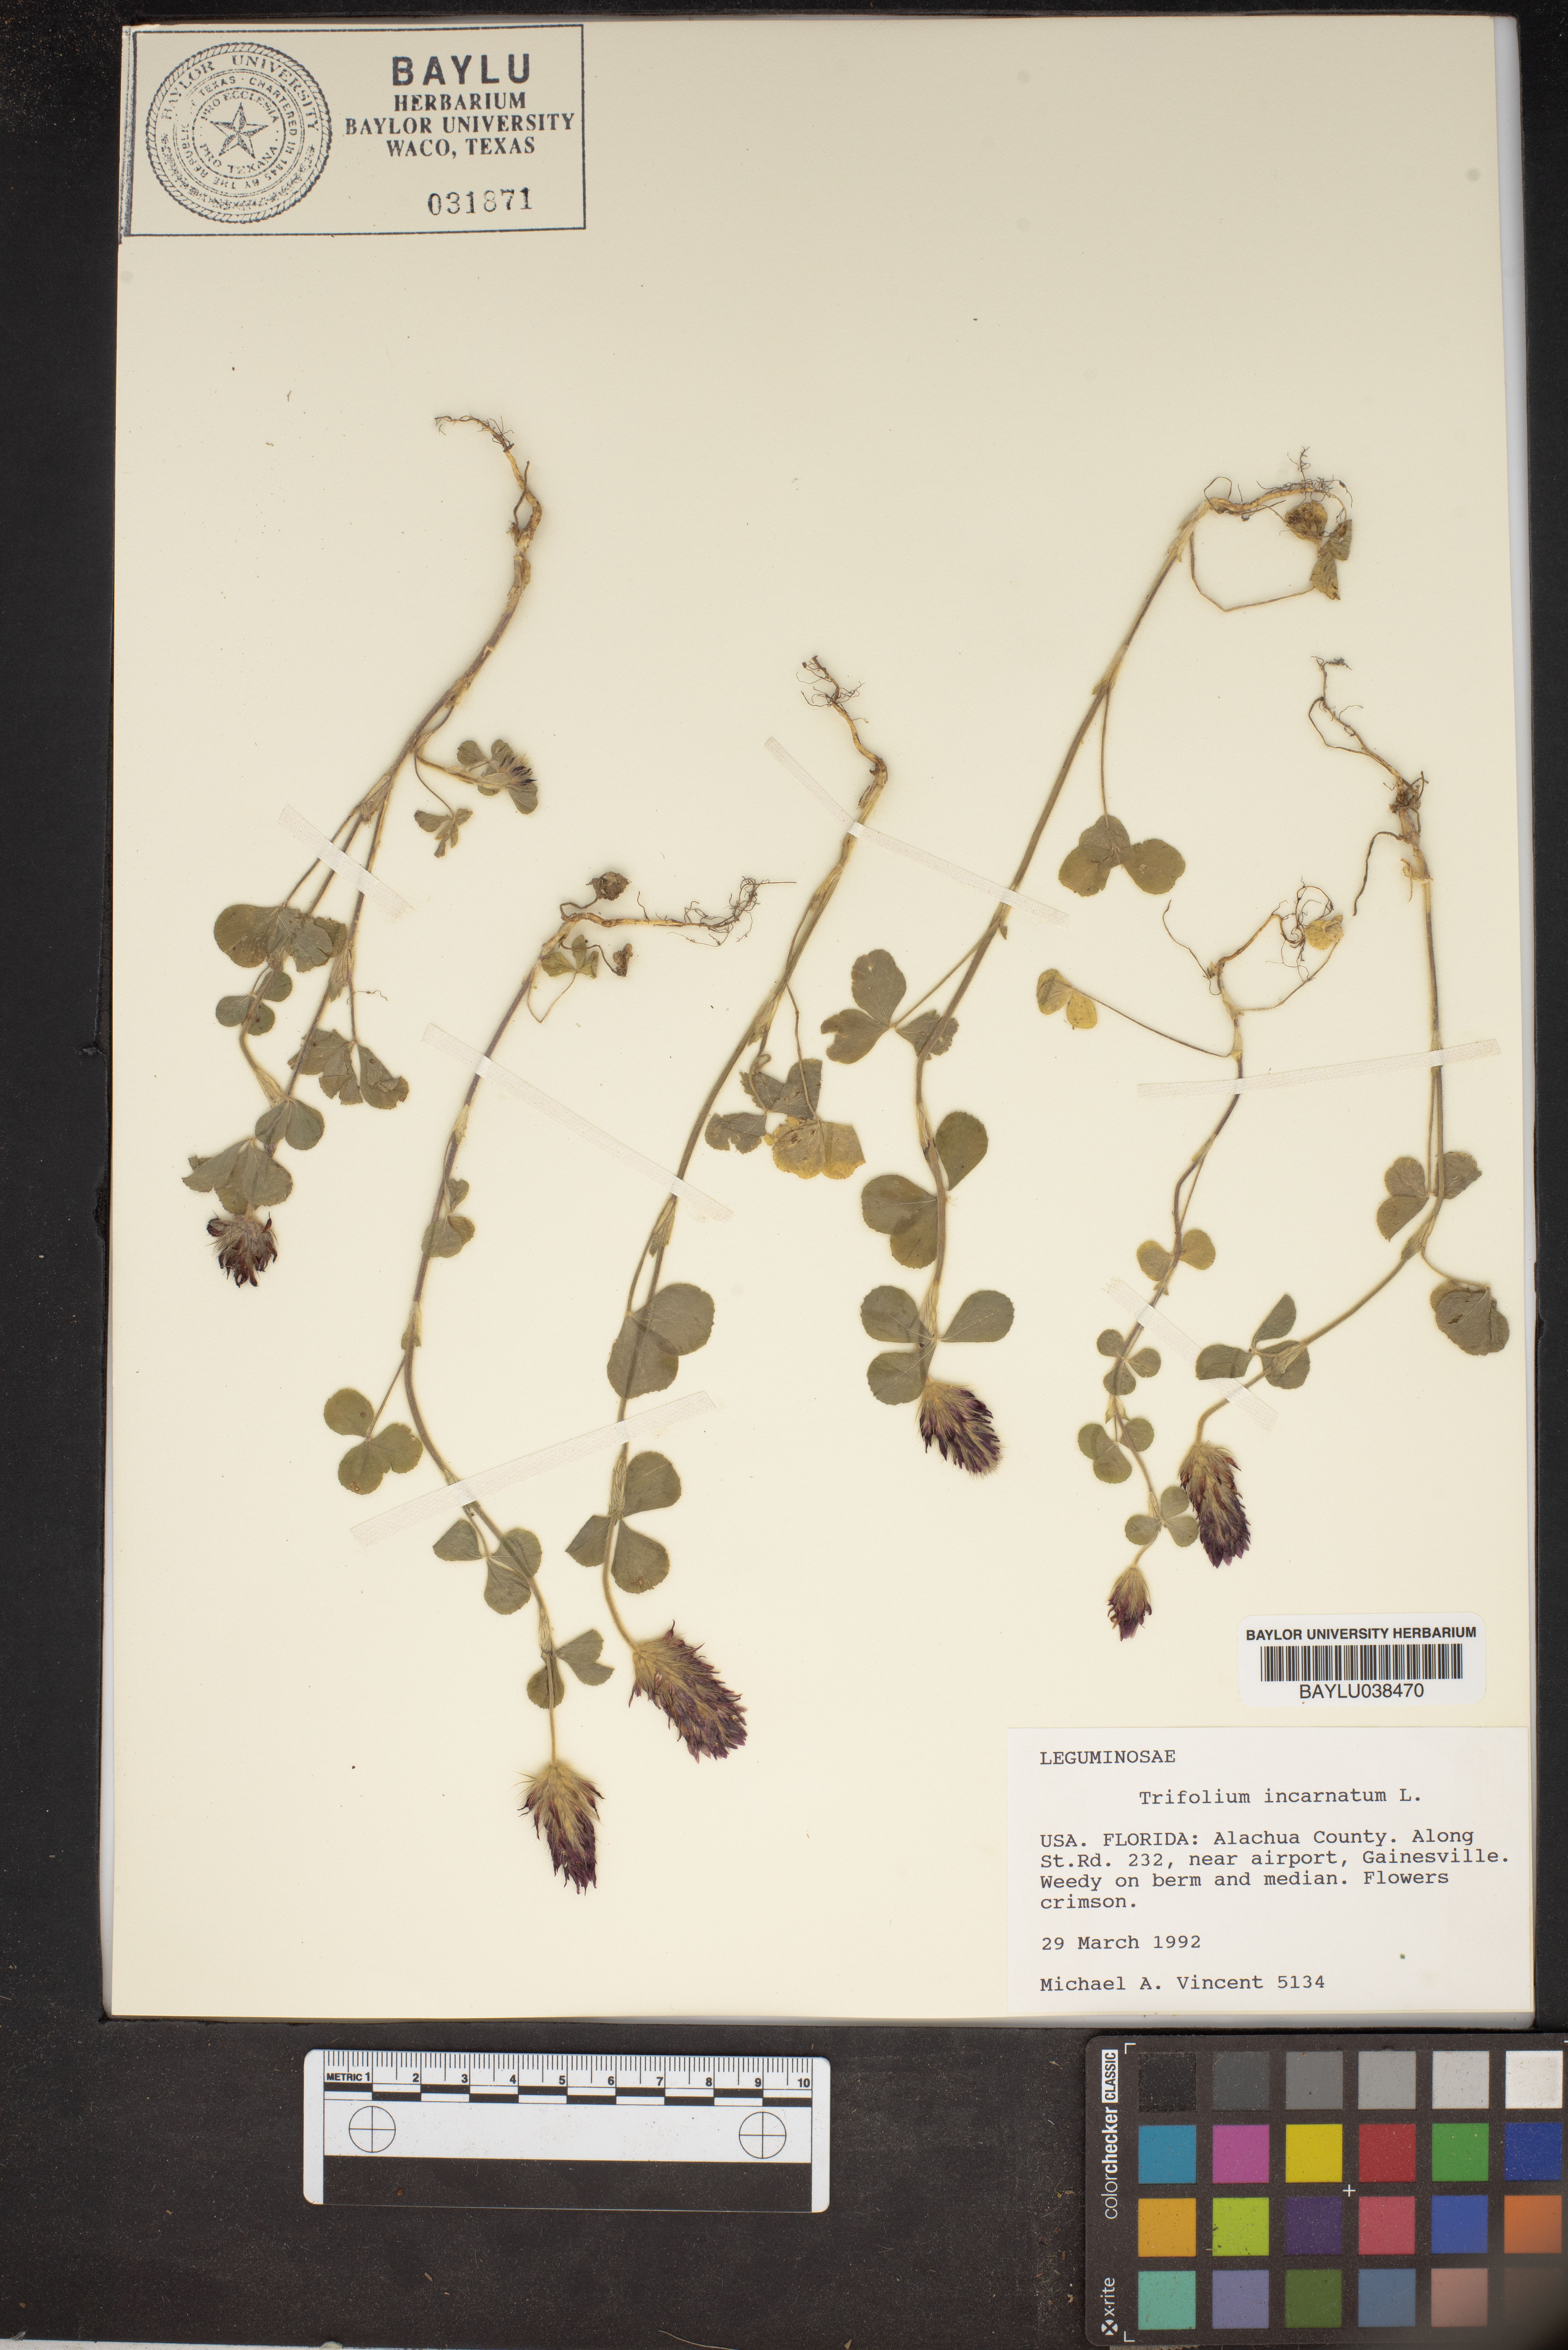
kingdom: Plantae
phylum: Tracheophyta
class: Magnoliopsida
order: Fabales
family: Fabaceae
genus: Trifolium
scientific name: Trifolium incarnatum
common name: Crimson clover
